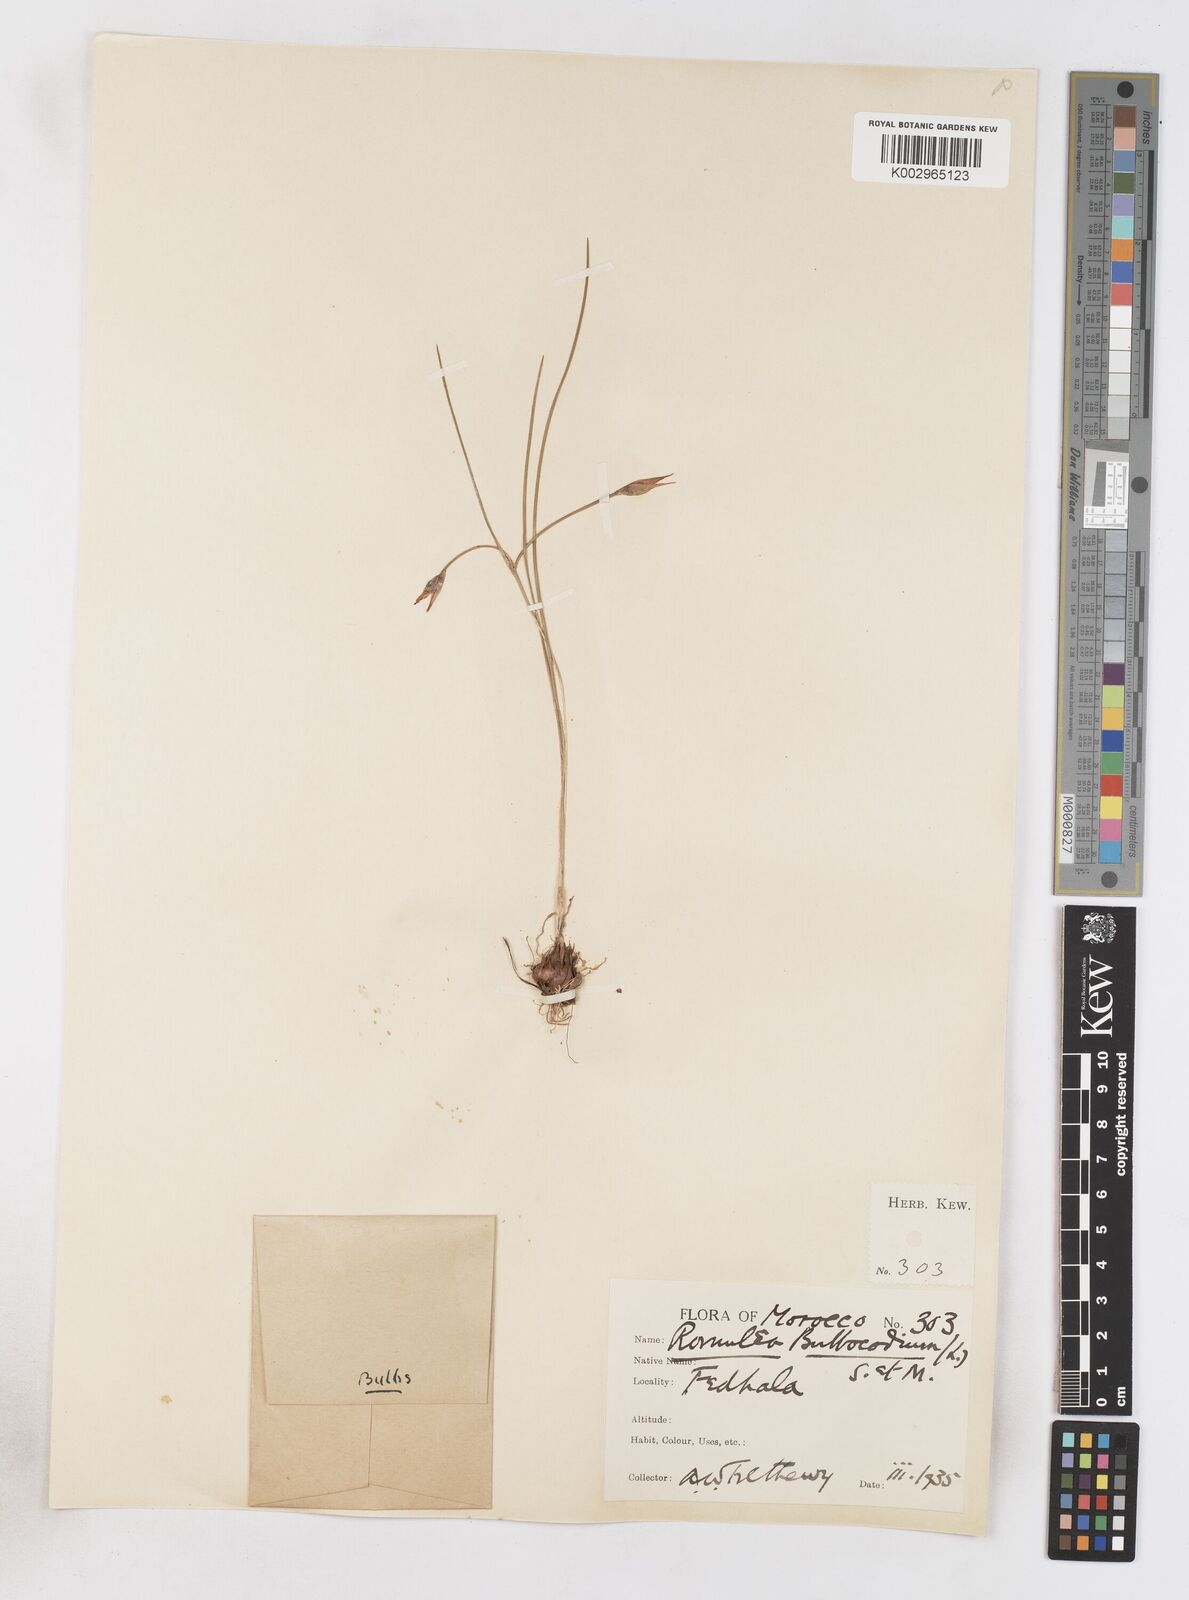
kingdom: Plantae
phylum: Tracheophyta
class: Liliopsida
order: Asparagales
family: Iridaceae
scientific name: Iridaceae
